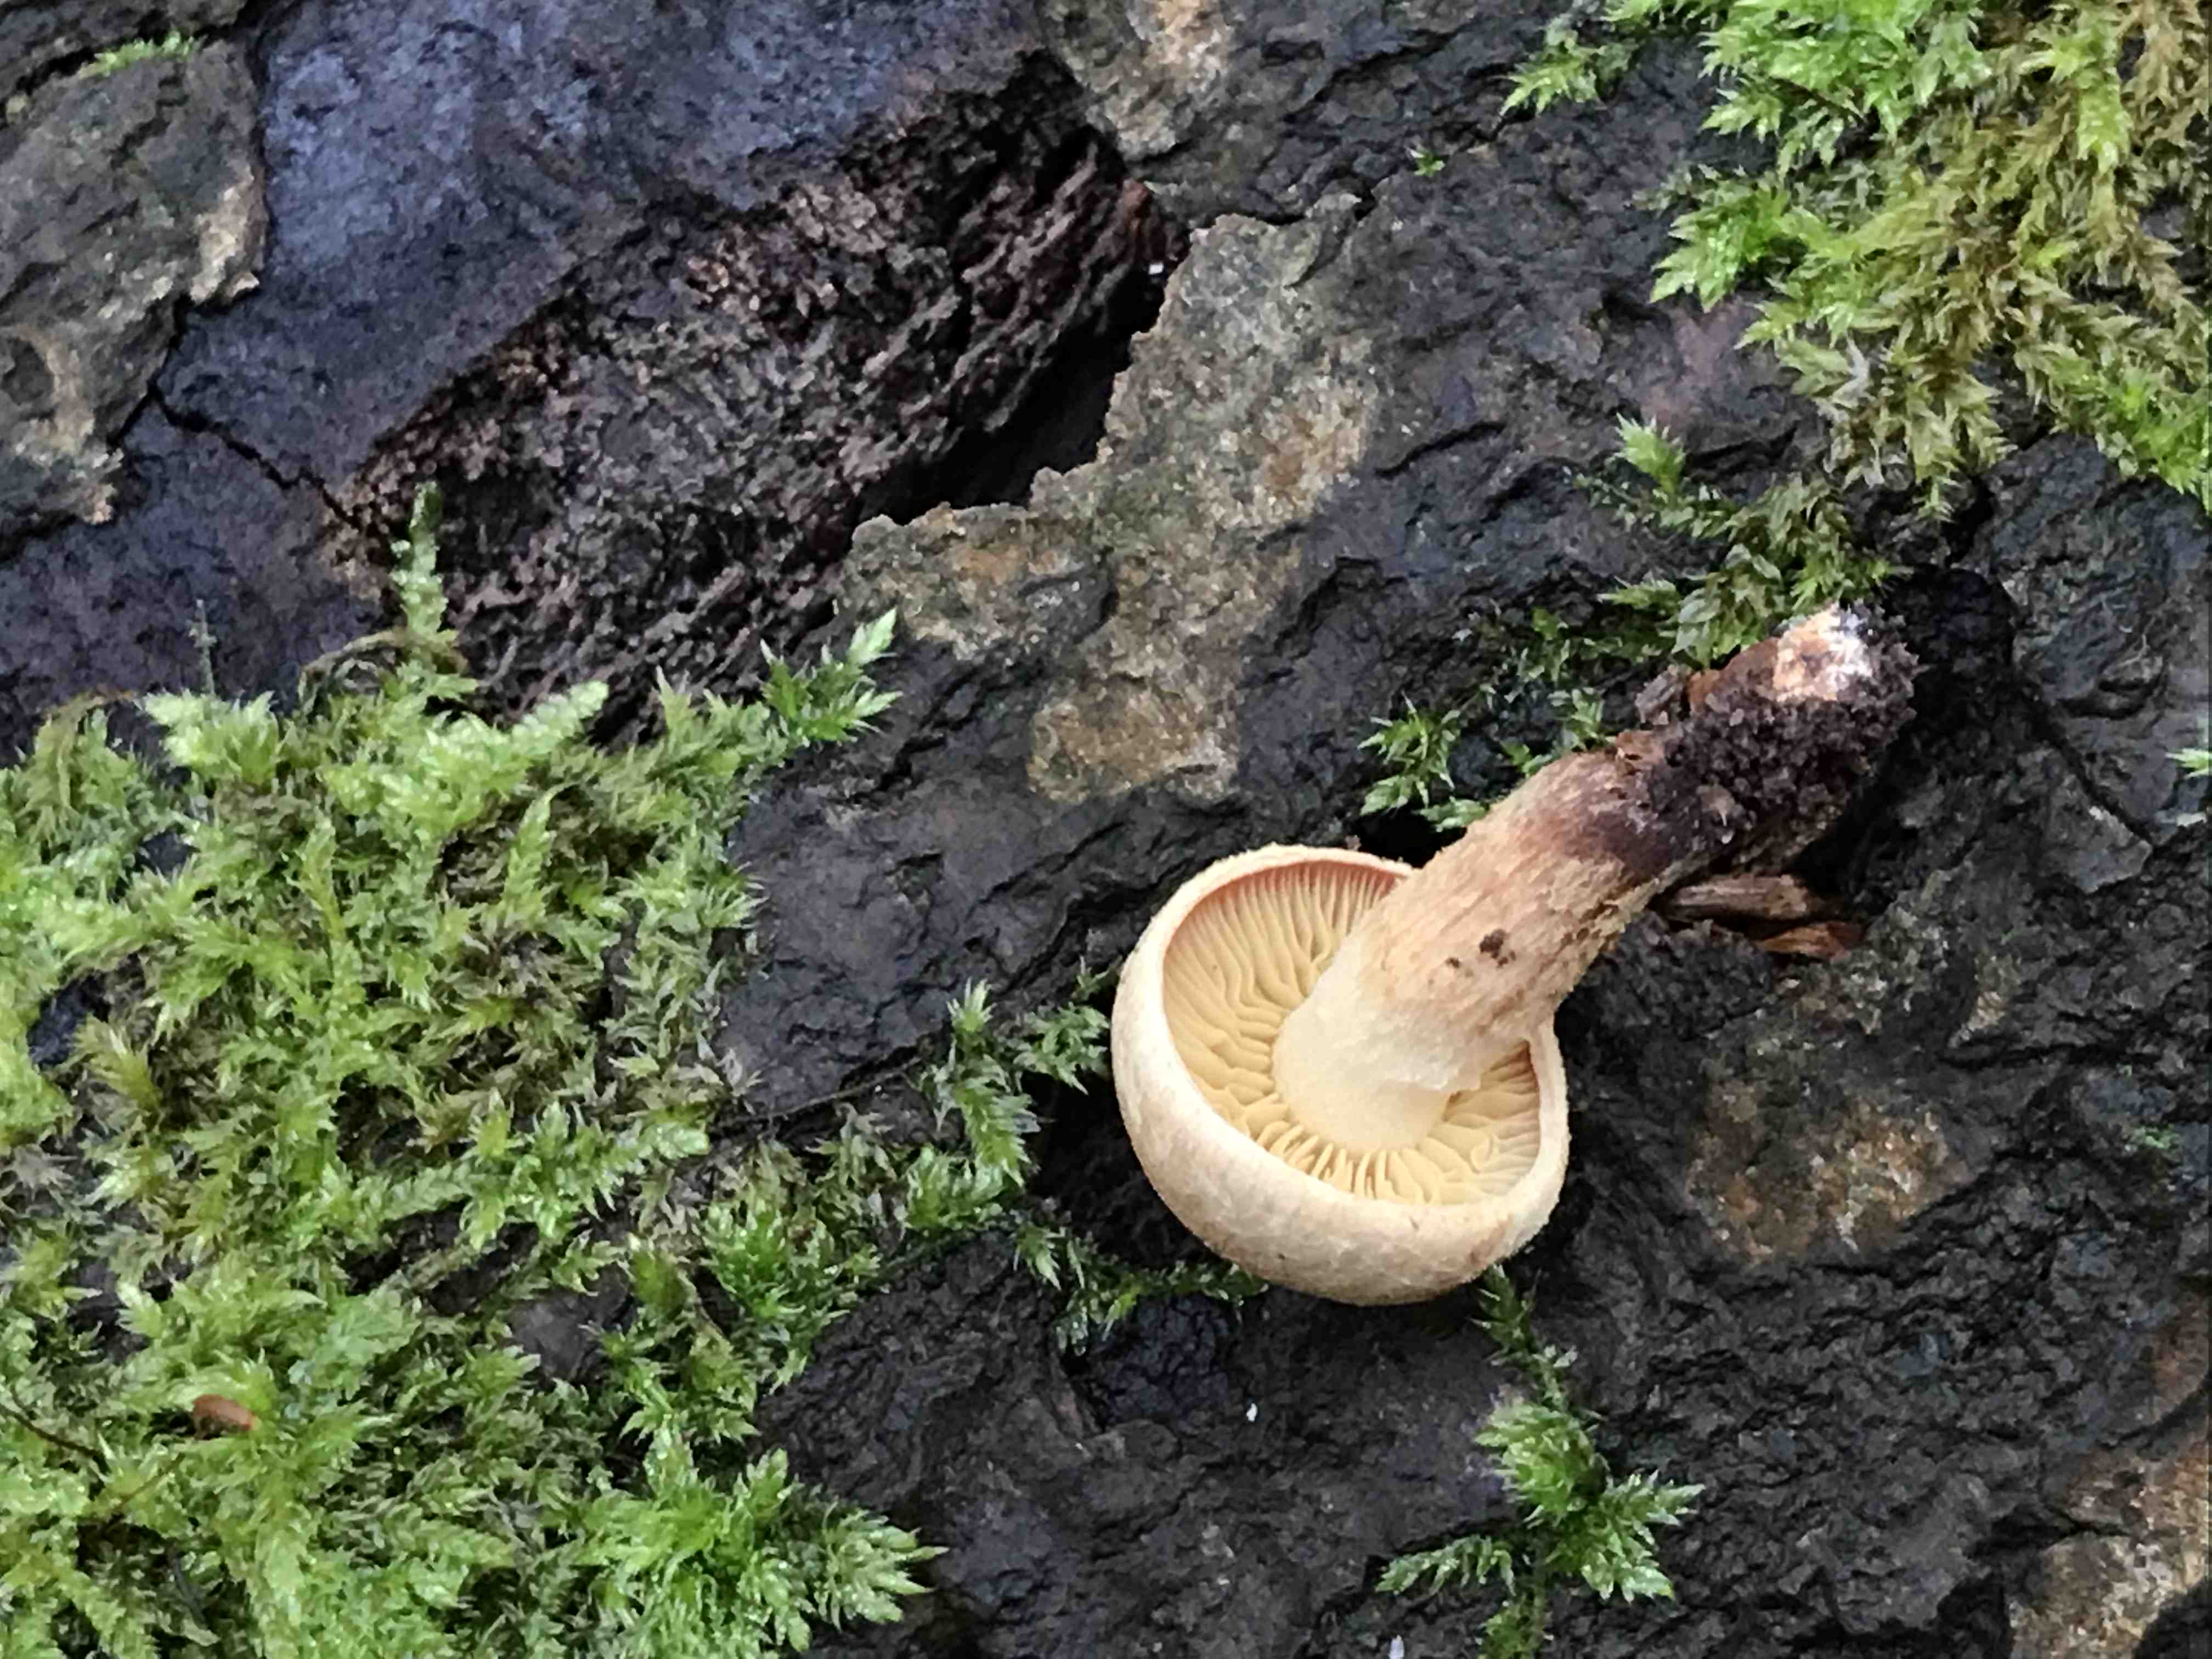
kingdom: Fungi
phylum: Basidiomycota
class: Agaricomycetes
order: Agaricales
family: Strophariaceae
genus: Hypholoma
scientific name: Hypholoma radicosum
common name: pælerods-svovlhat
